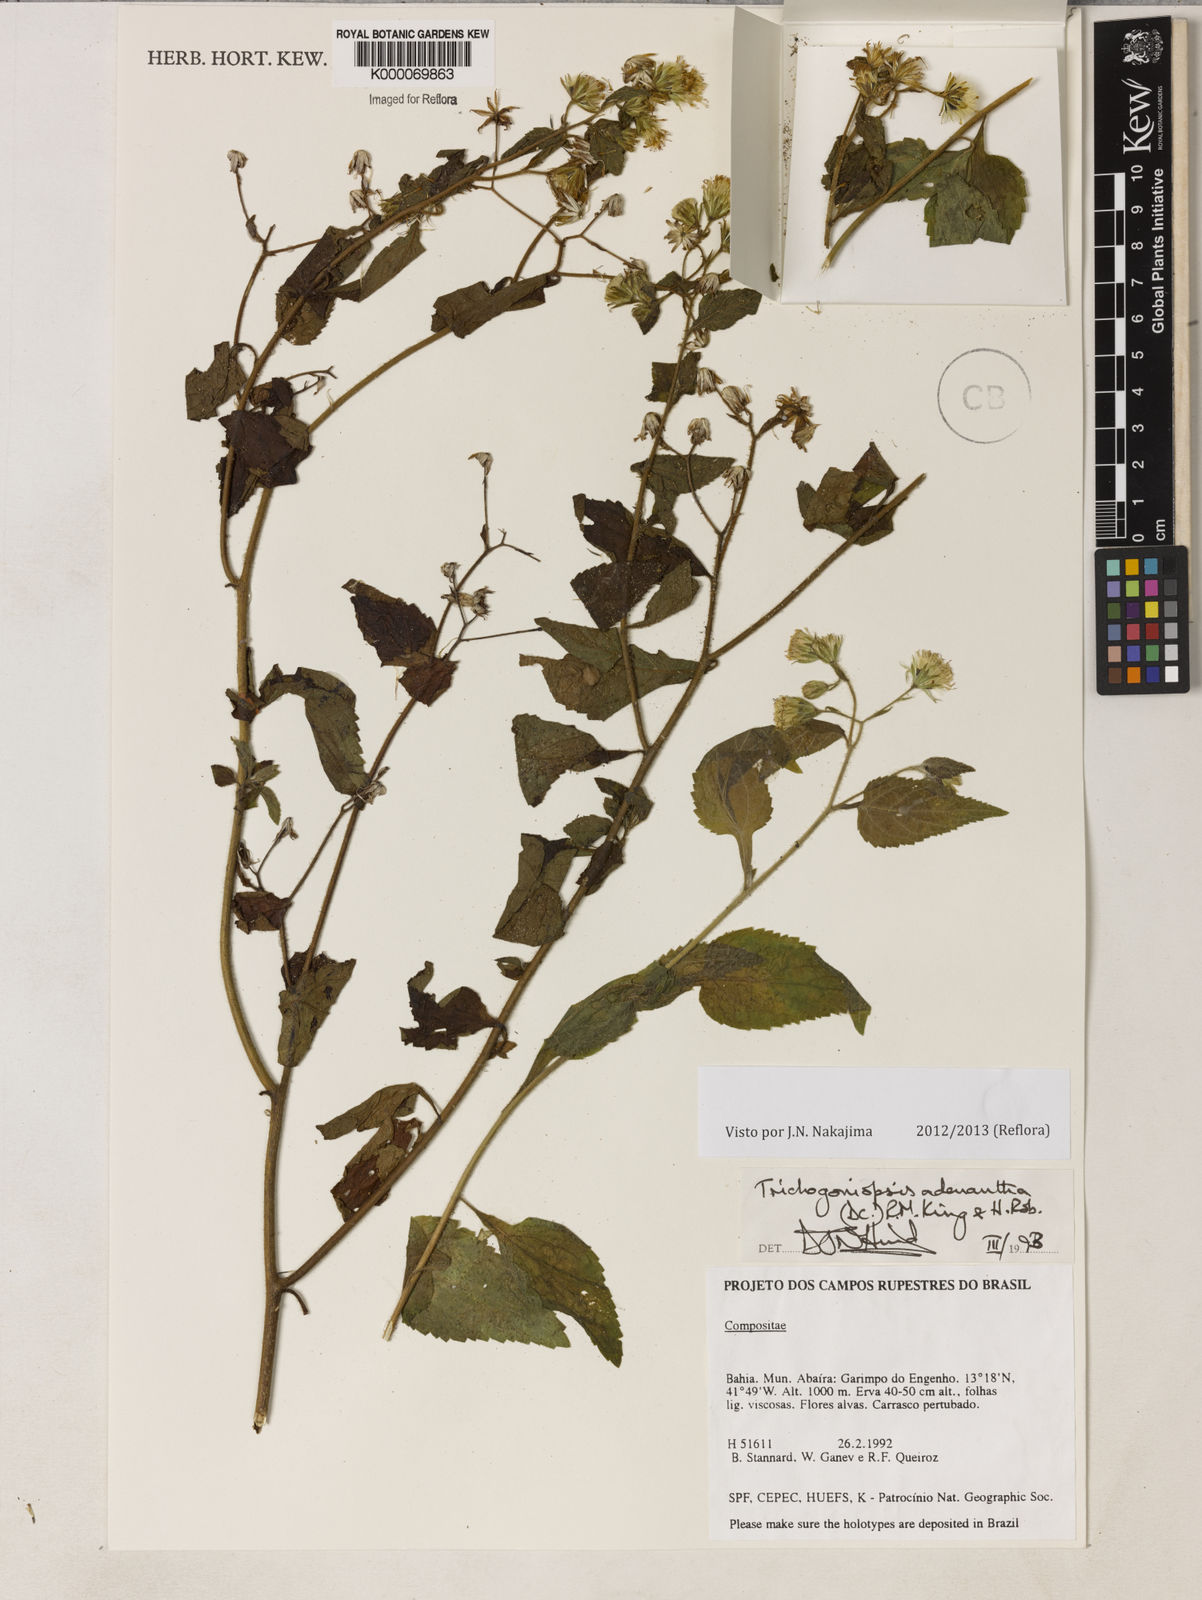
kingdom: Plantae
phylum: Tracheophyta
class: Magnoliopsida
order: Asterales
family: Asteraceae
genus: Trichogoniopsis
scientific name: Trichogoniopsis adenantha
